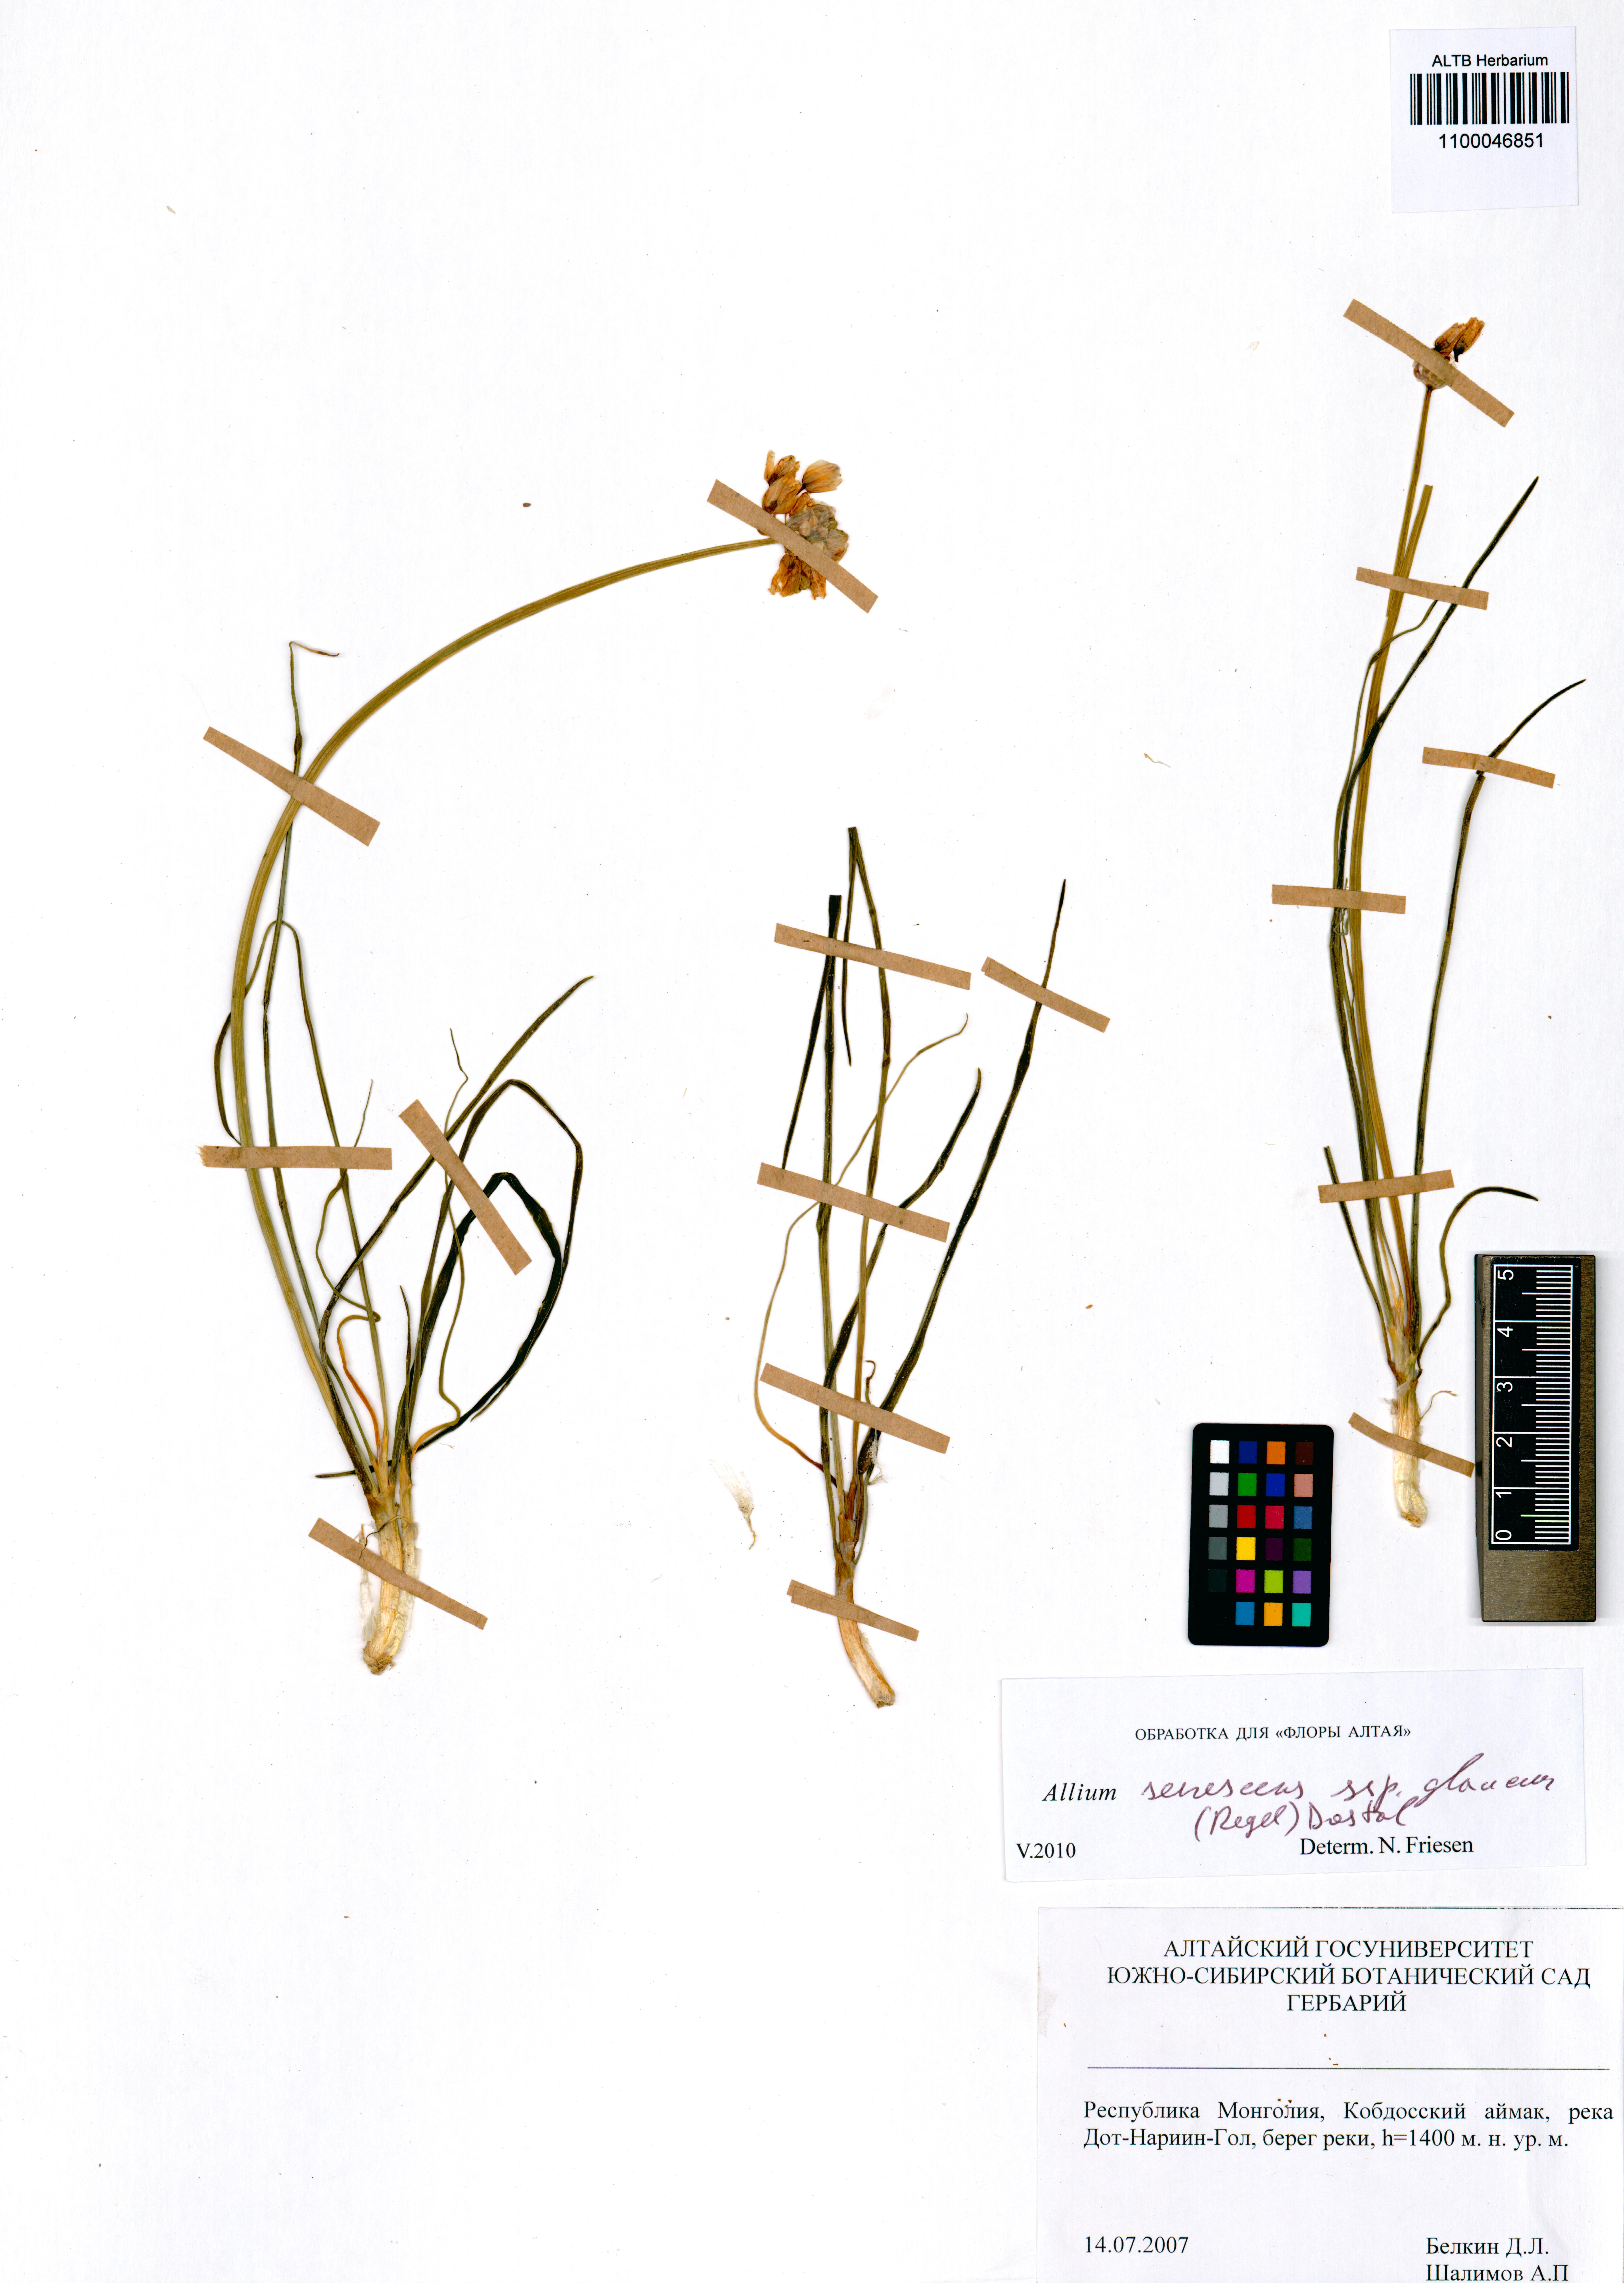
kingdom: Plantae
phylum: Tracheophyta
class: Liliopsida
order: Asparagales
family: Amaryllidaceae
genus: Allium
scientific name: Allium senescens
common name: German garlic
